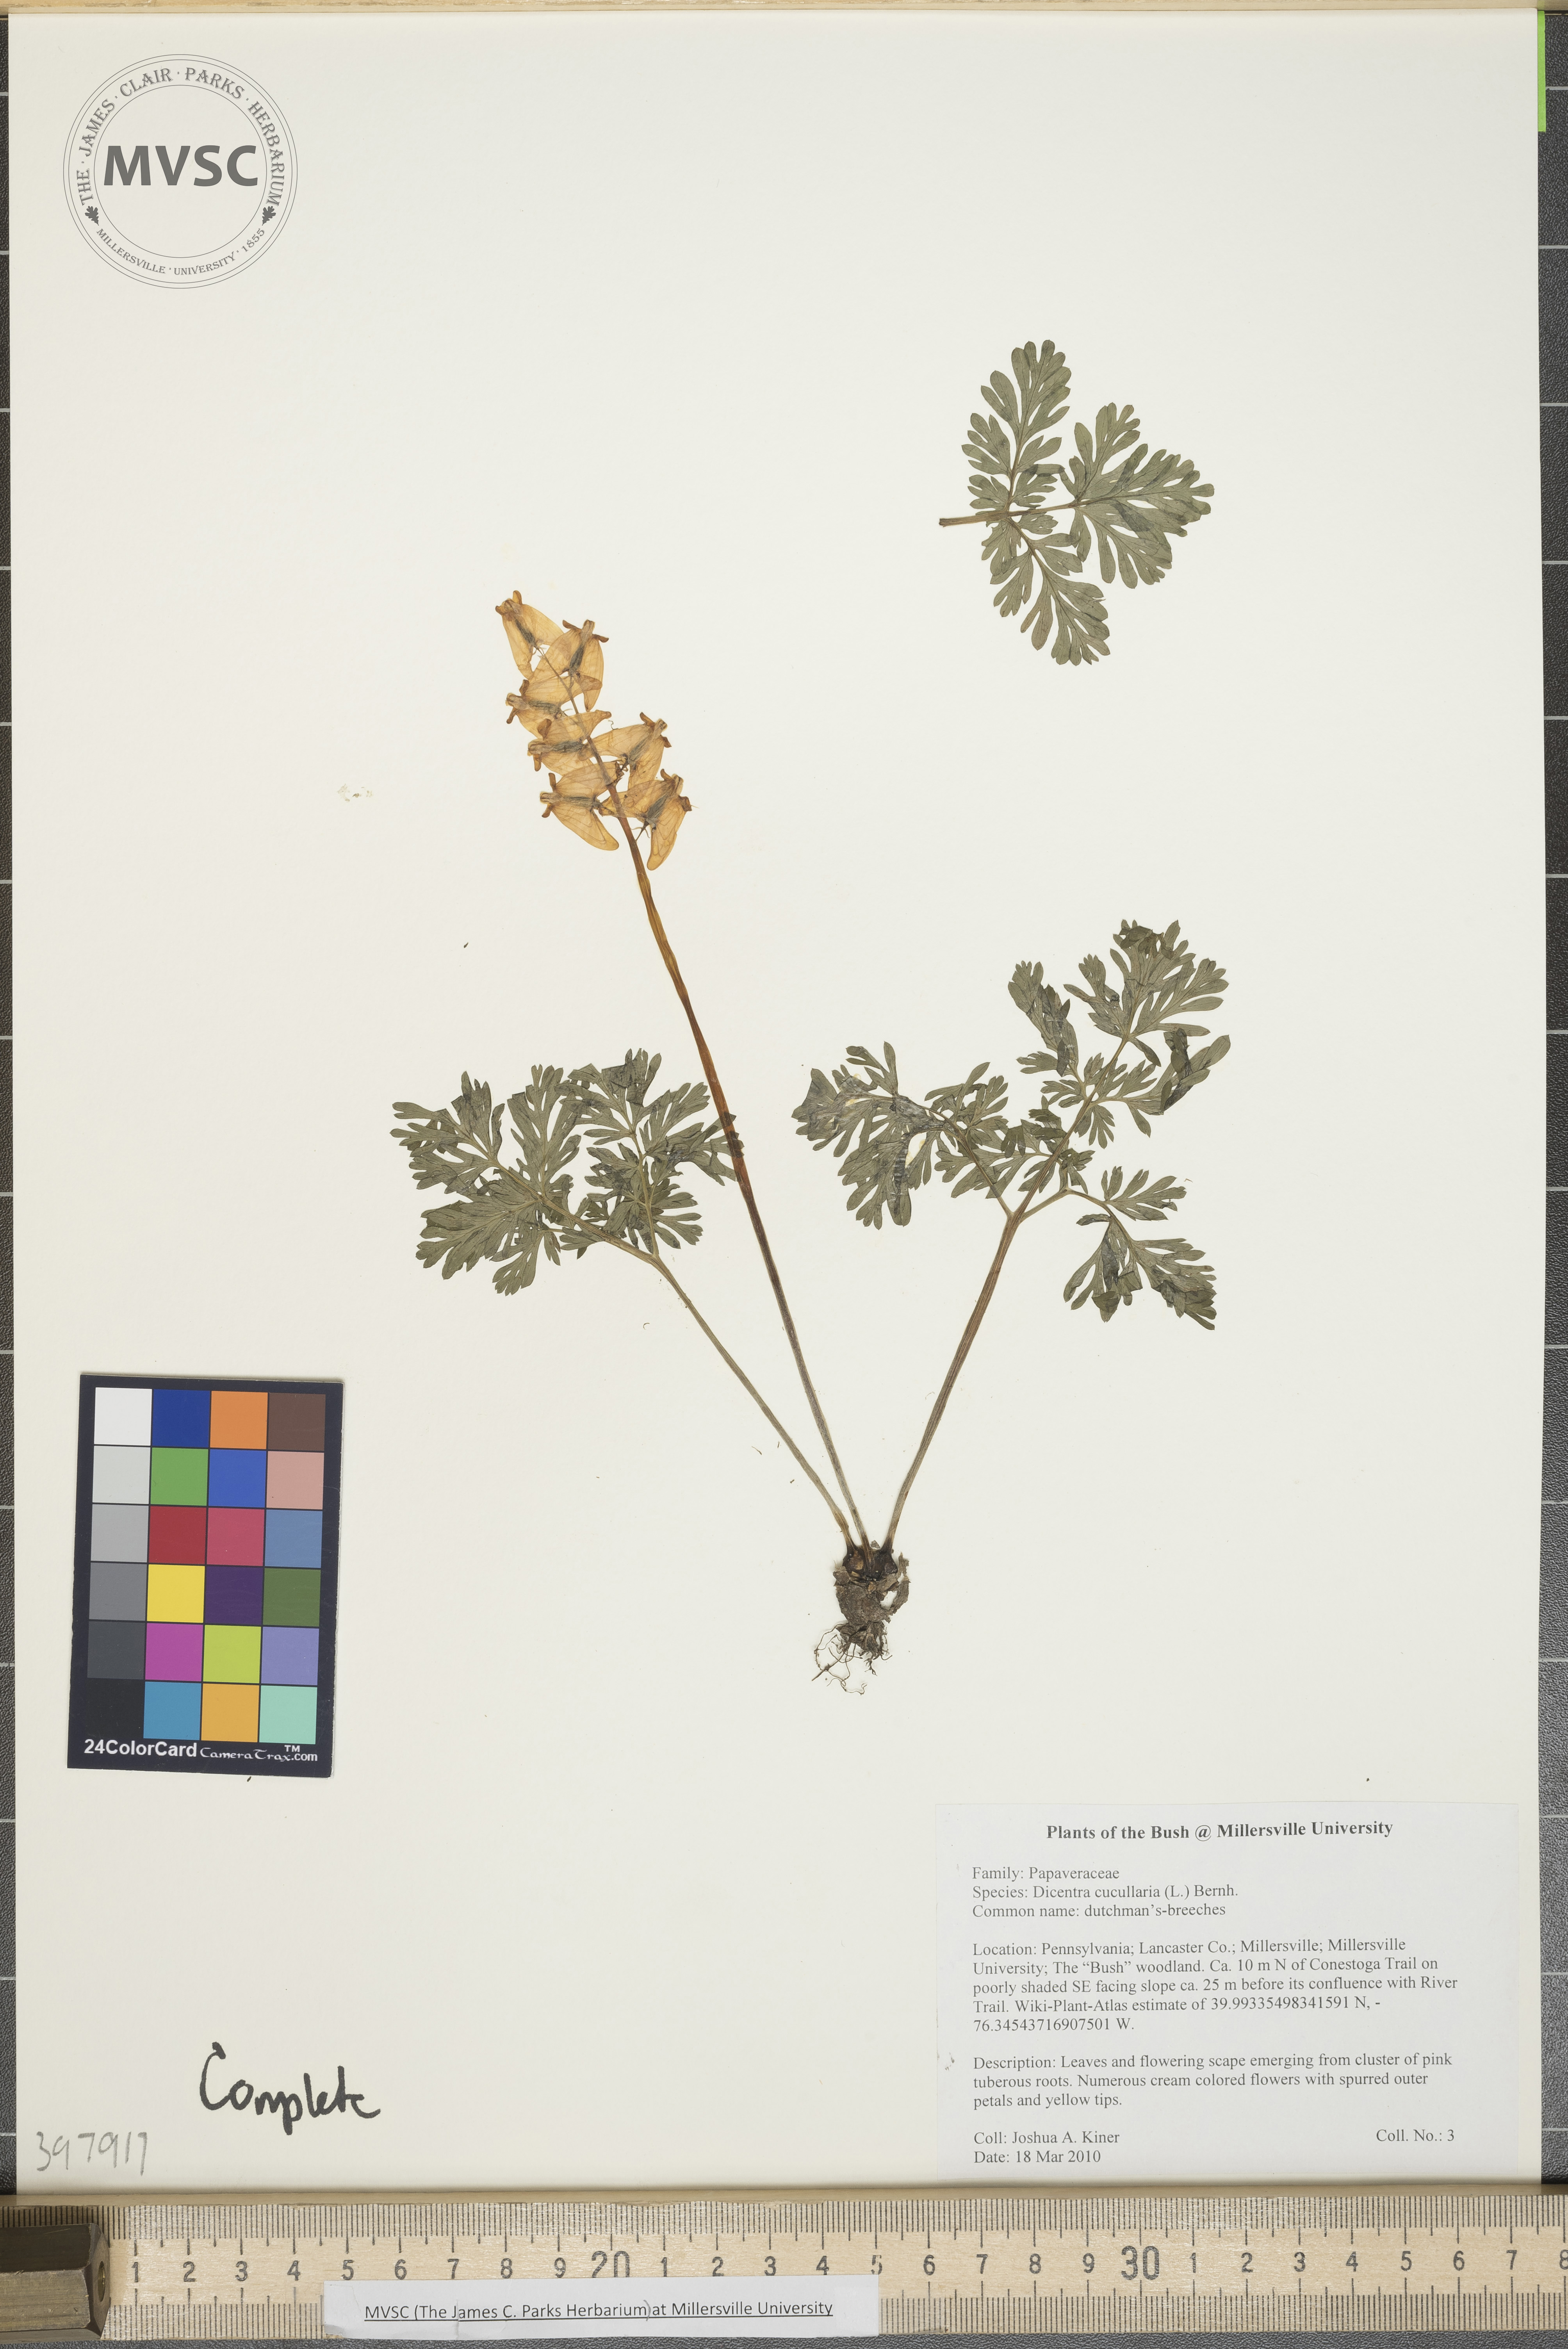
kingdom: Plantae
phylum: Tracheophyta
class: Magnoliopsida
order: Ranunculales
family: Papaveraceae
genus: Dicentra
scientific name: Dicentra cucullaria
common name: Dutchman's-breeches
